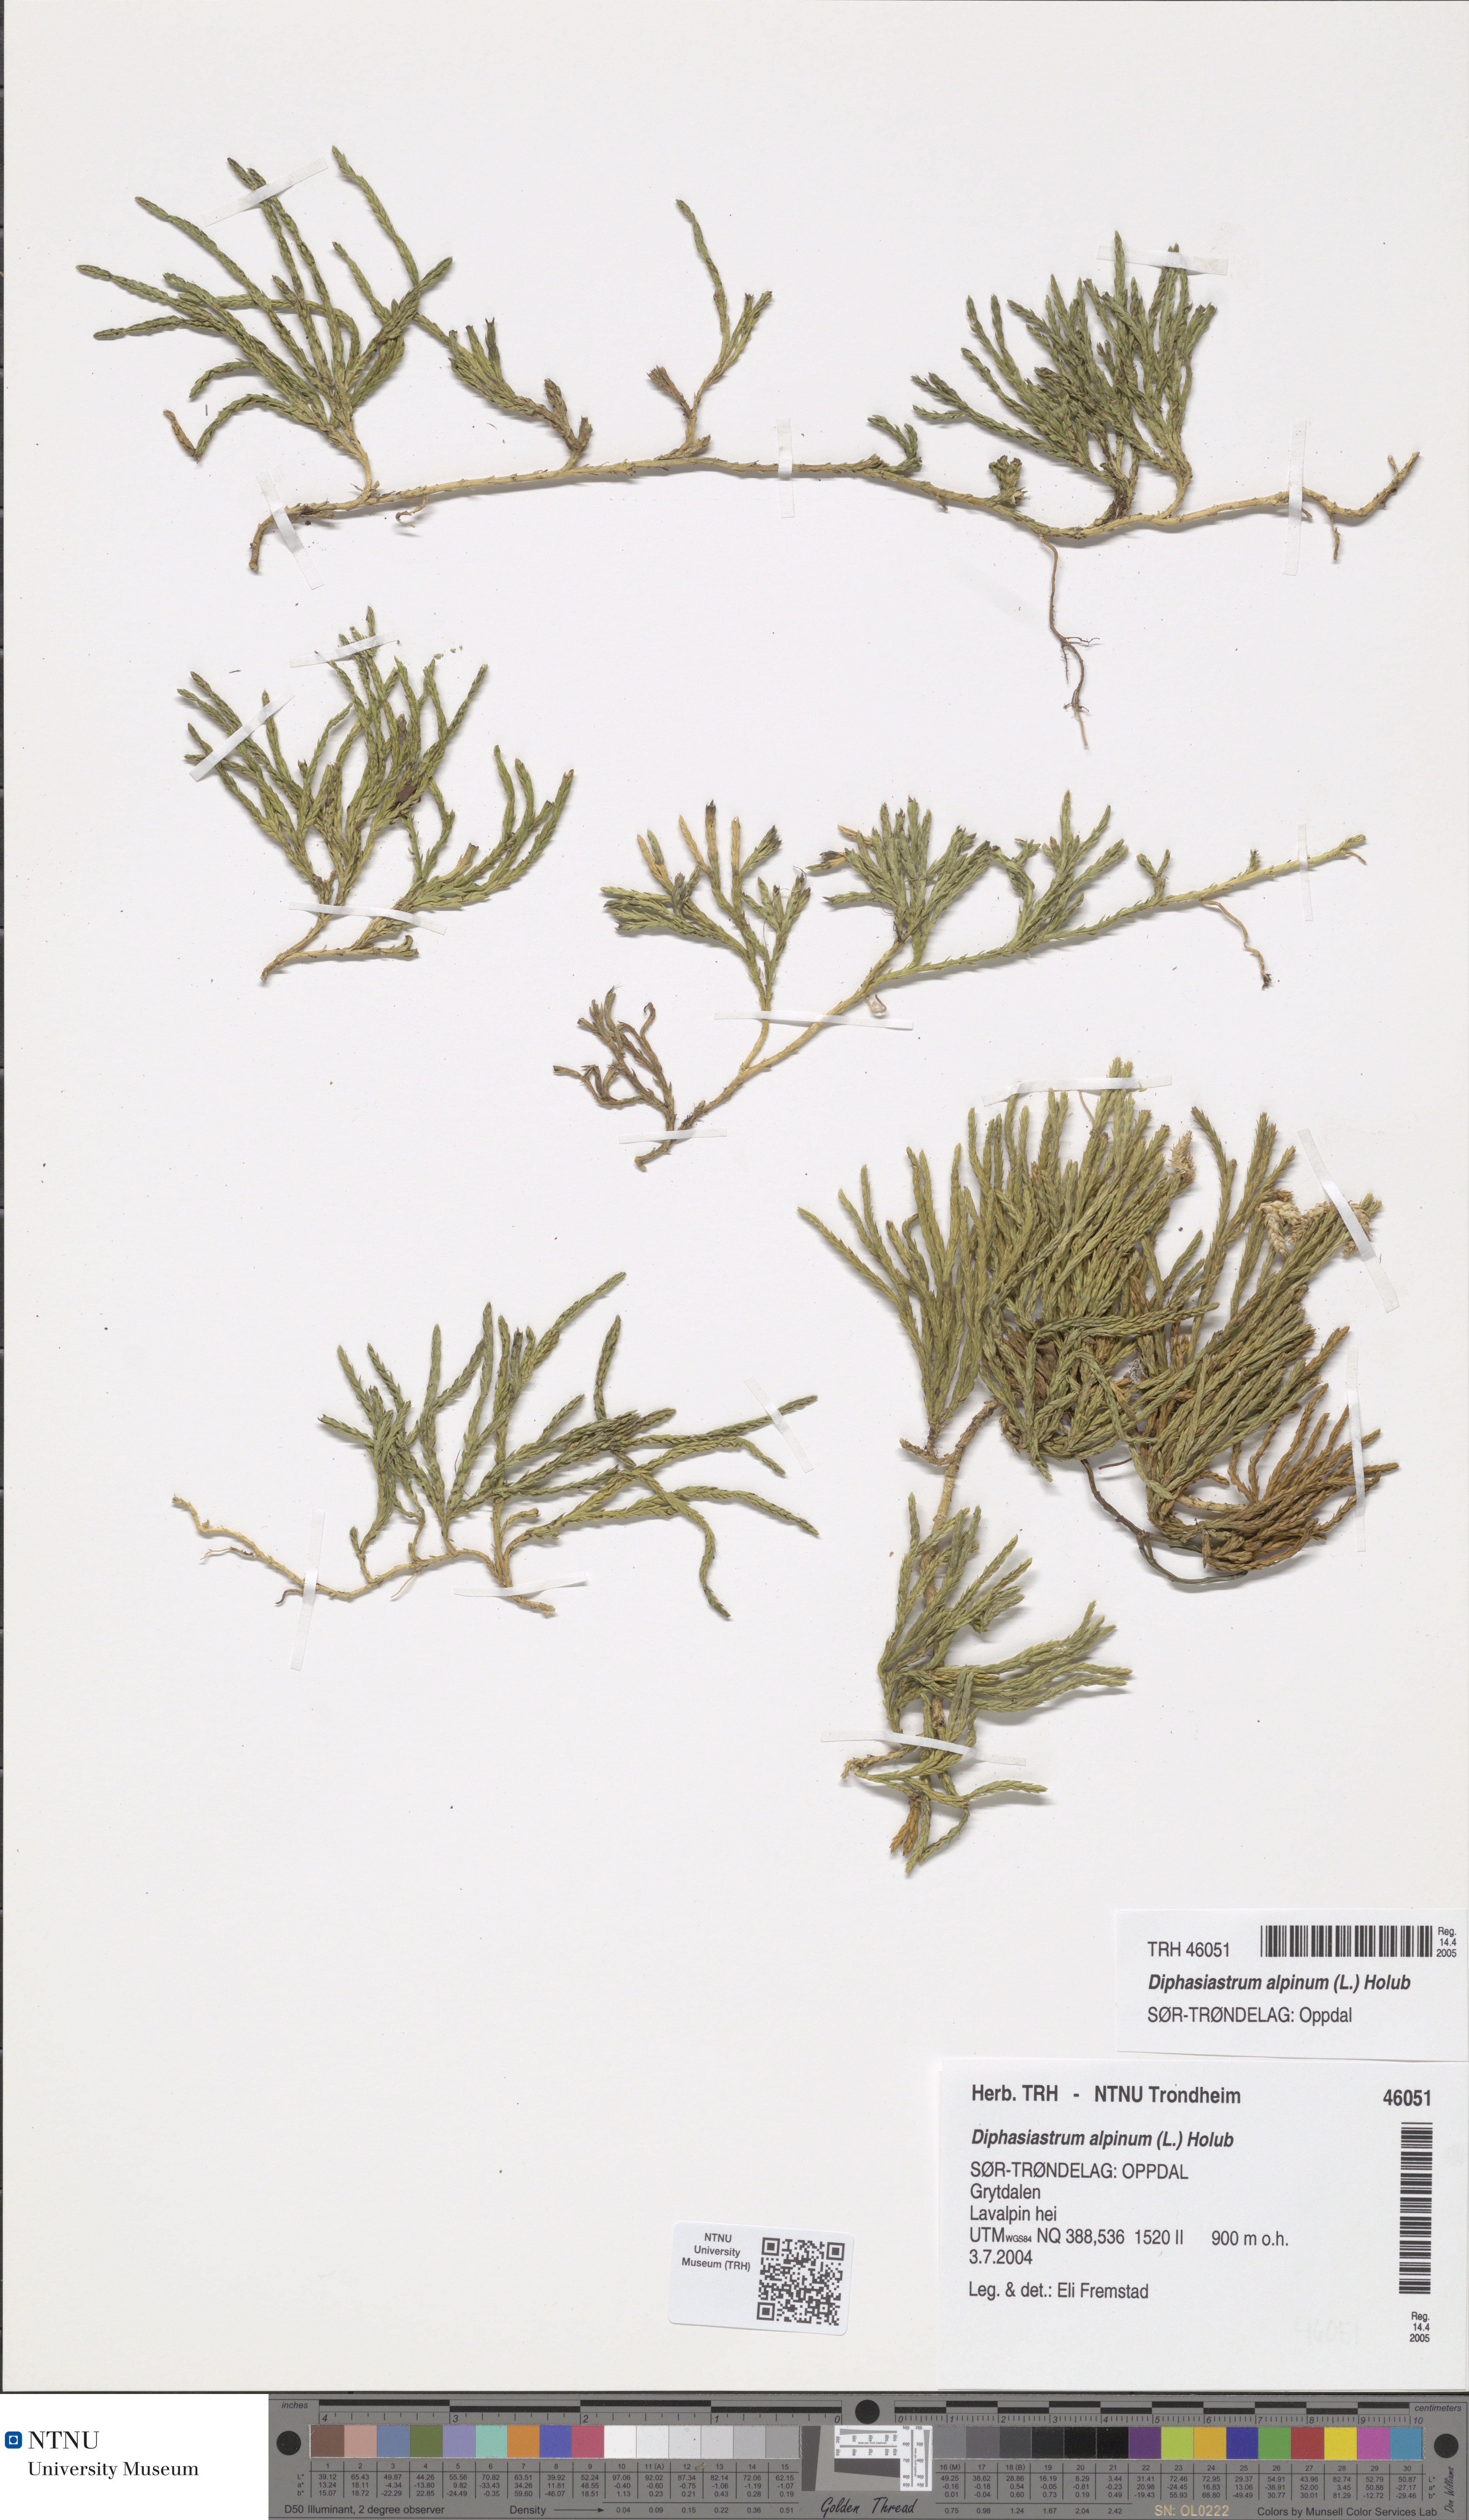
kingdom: Plantae
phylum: Tracheophyta
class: Lycopodiopsida
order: Lycopodiales
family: Lycopodiaceae
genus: Diphasiastrum
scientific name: Diphasiastrum alpinum
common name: Alpine clubmoss
